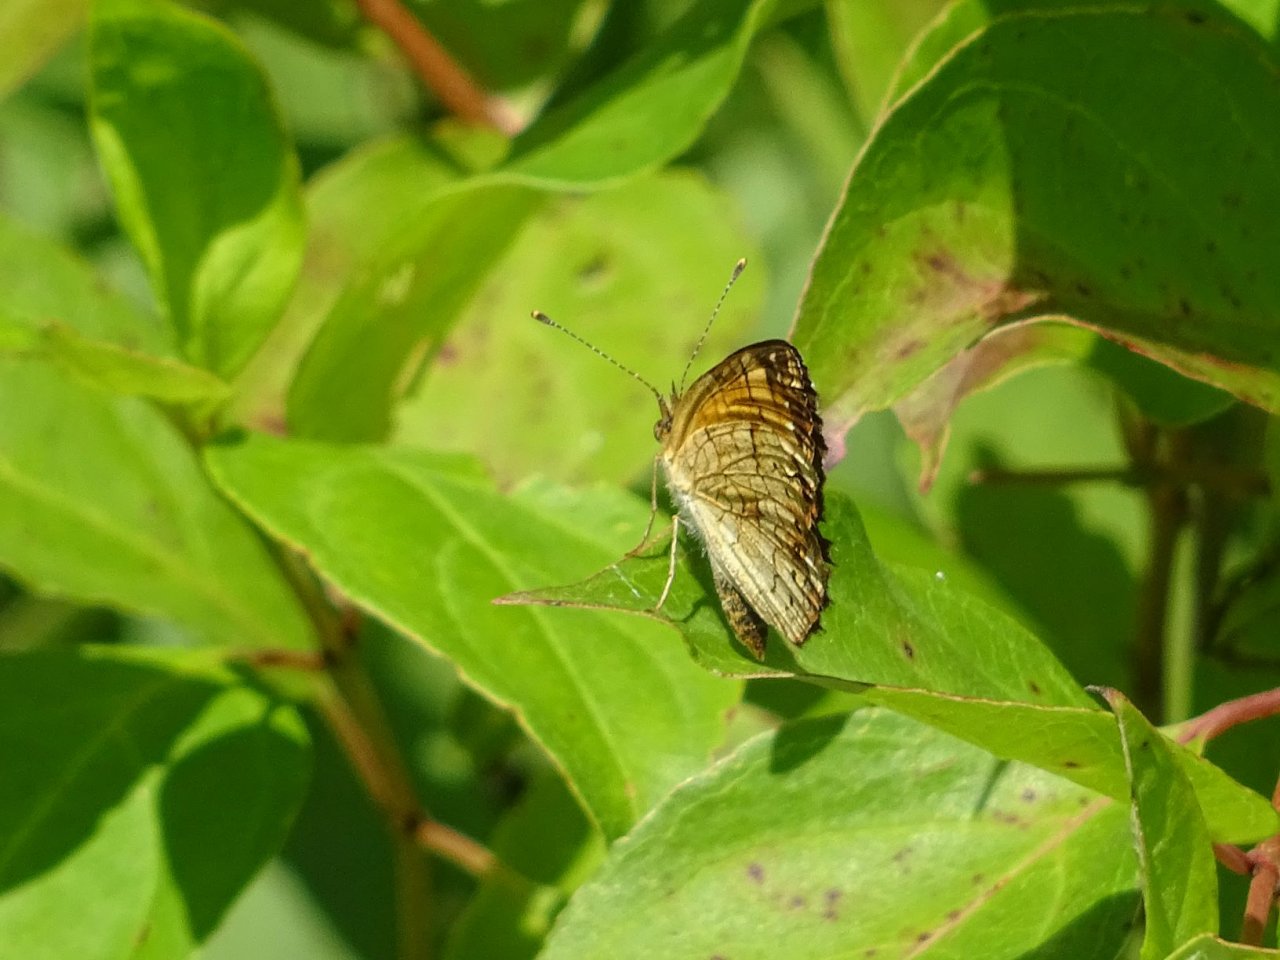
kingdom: Animalia
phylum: Arthropoda
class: Insecta
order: Lepidoptera
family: Nymphalidae
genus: Phyciodes
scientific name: Phyciodes tharos
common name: Northern Crescent
